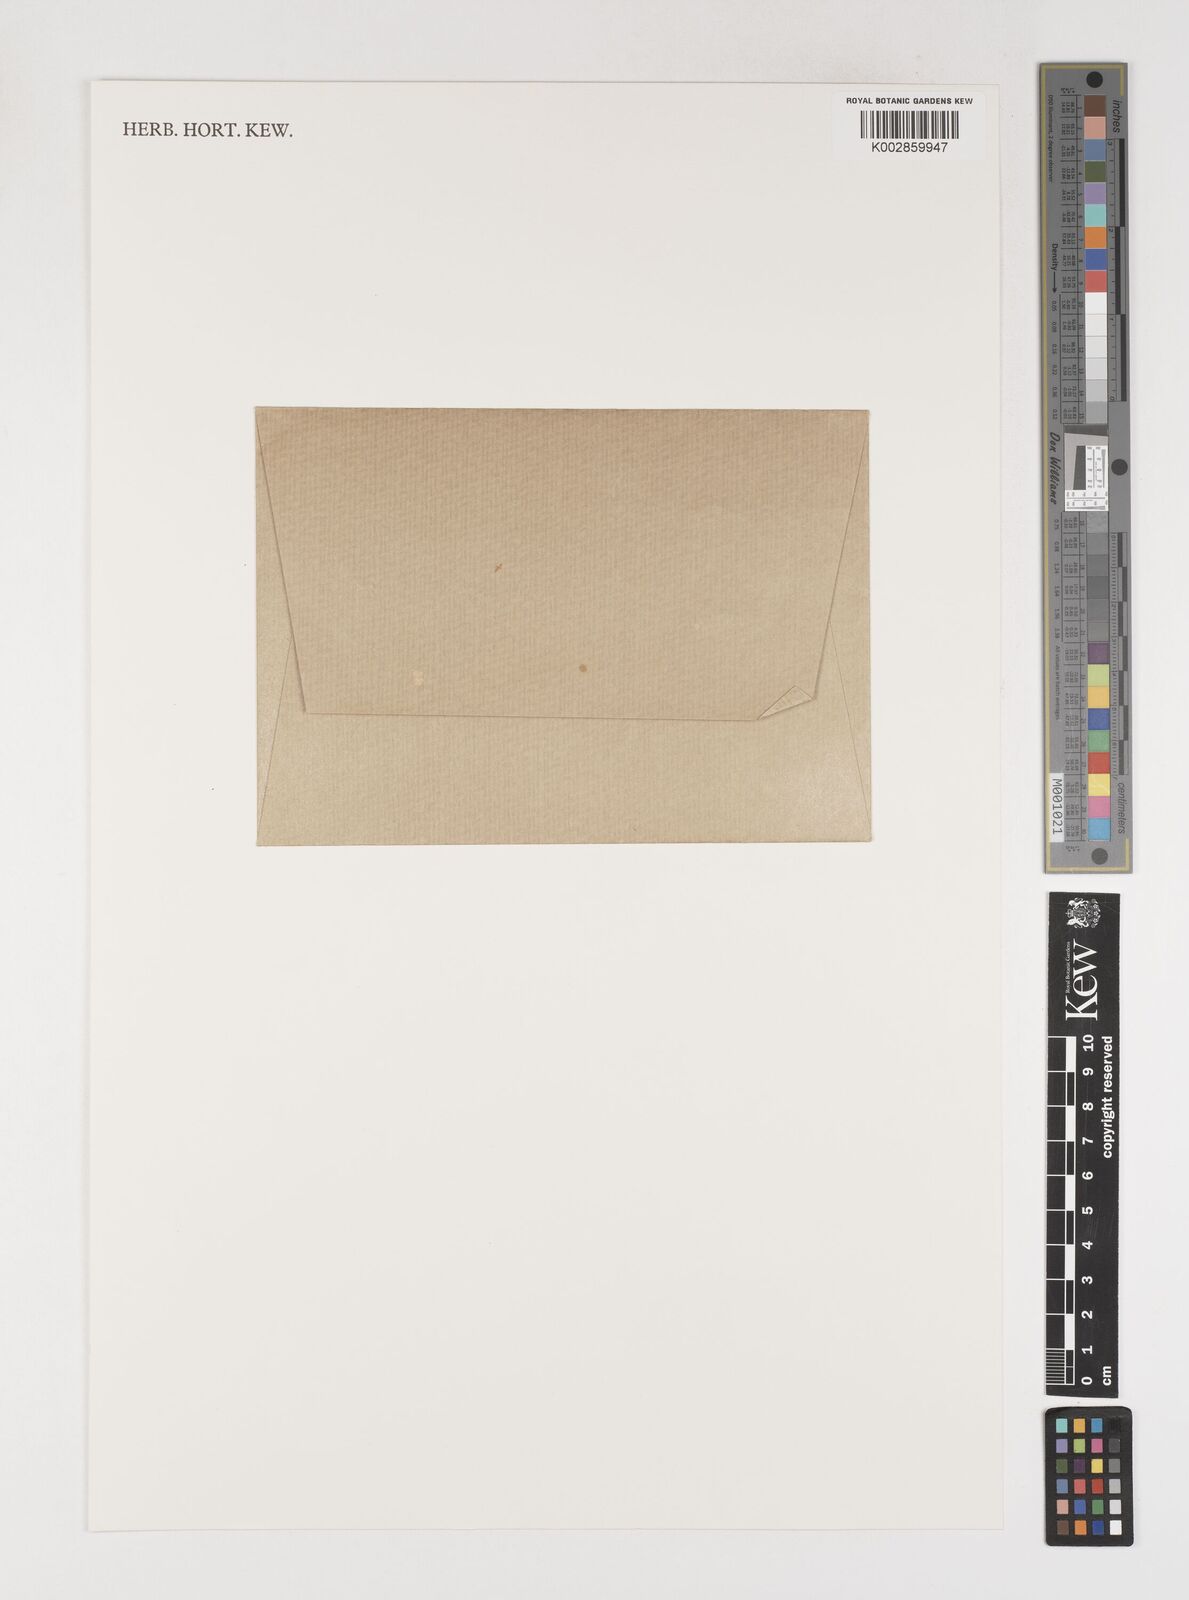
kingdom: Plantae
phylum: Tracheophyta
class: Liliopsida
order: Poales
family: Poaceae
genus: Poa
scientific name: Poa annua
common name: Annual bluegrass
